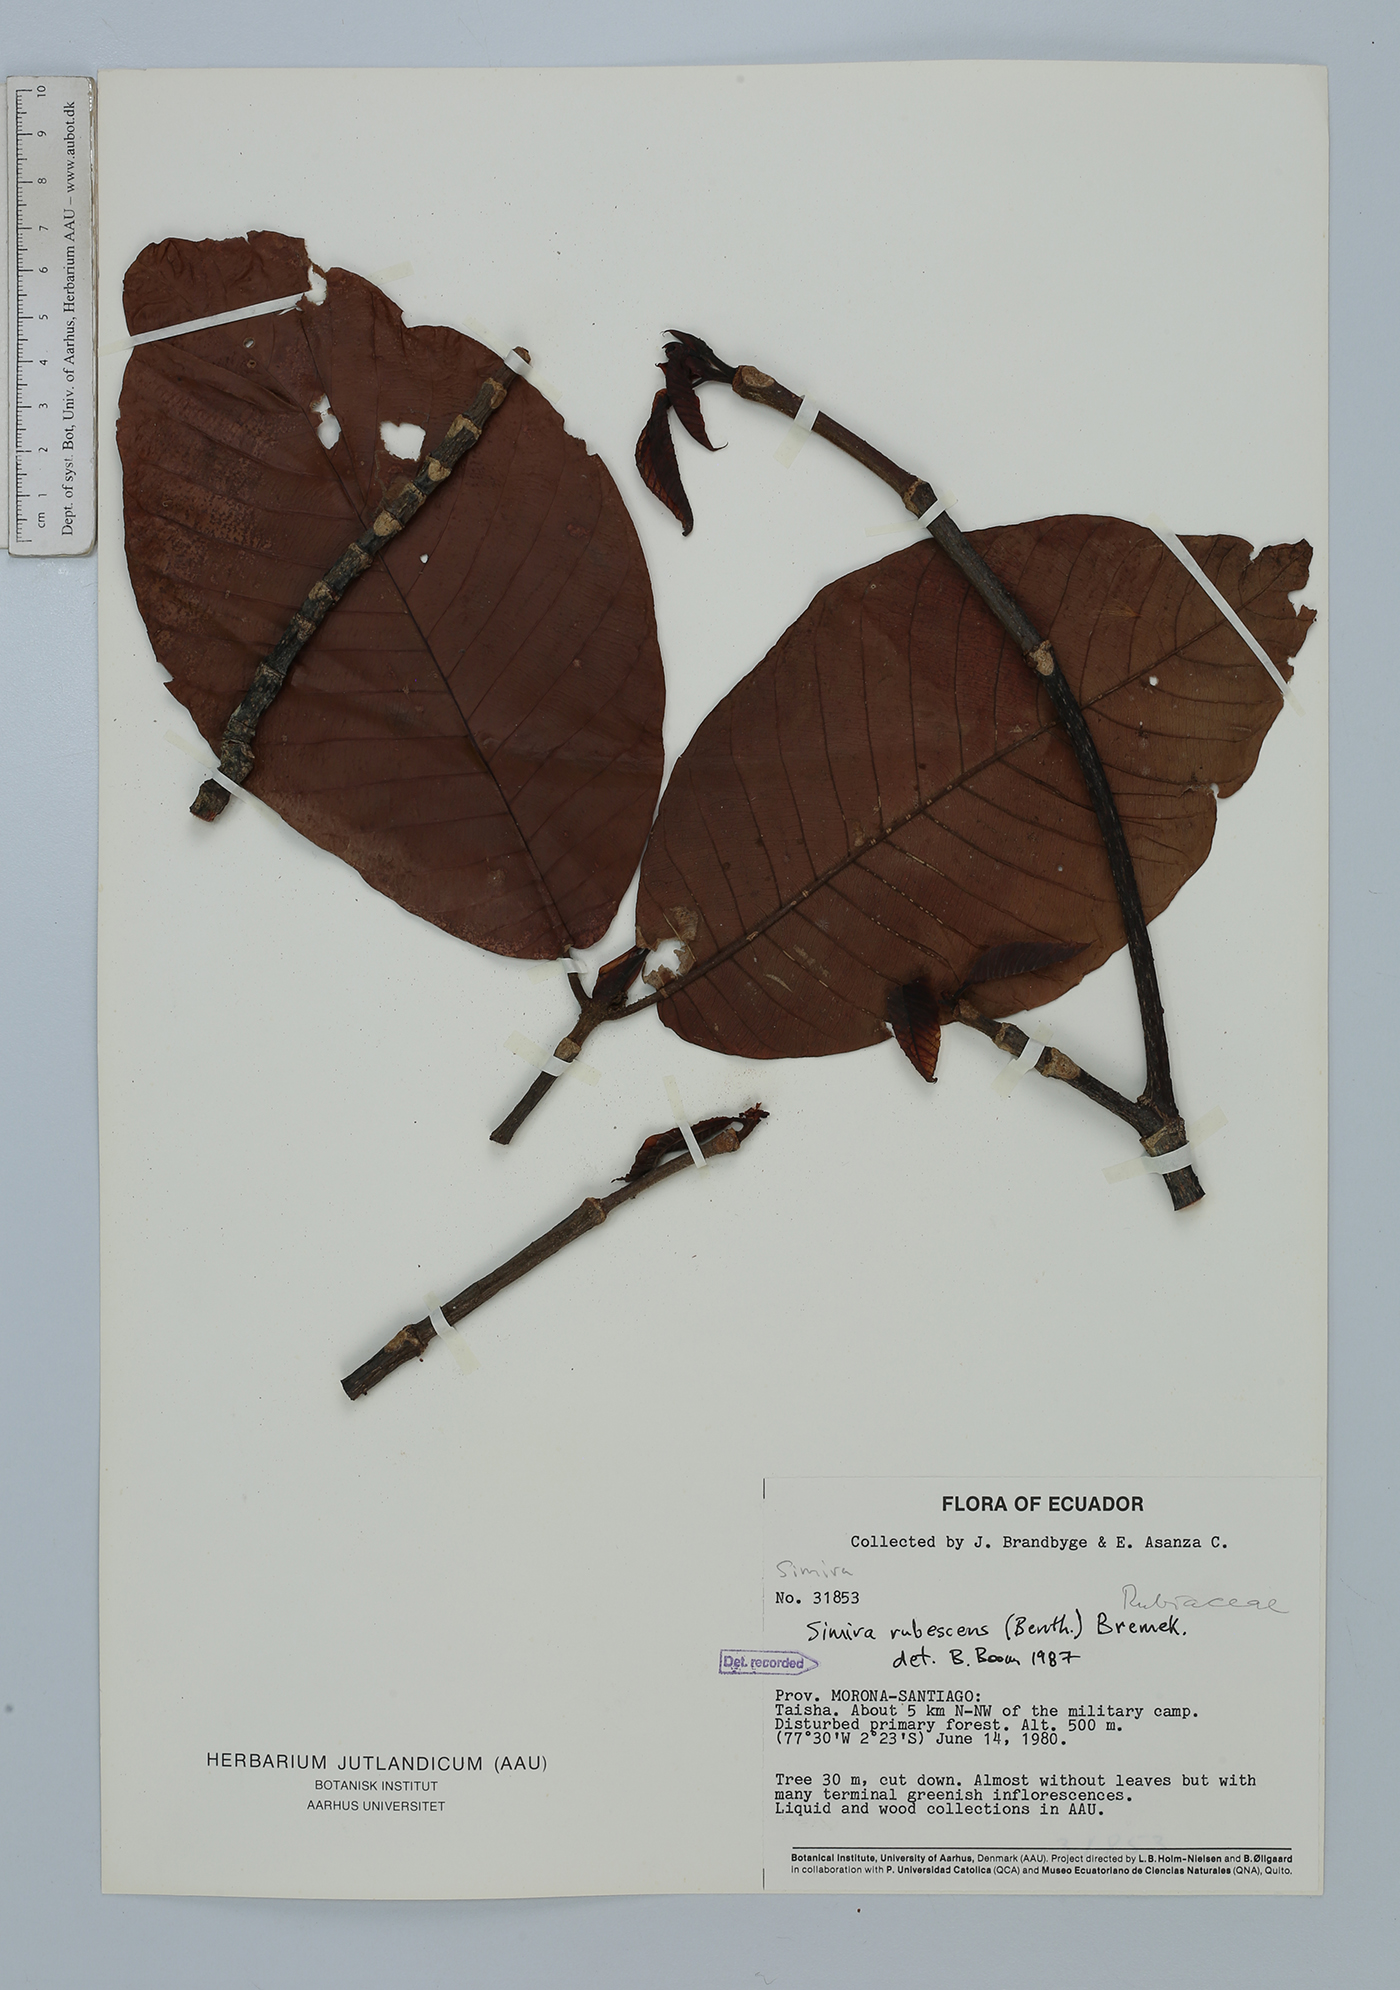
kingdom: Plantae
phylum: Tracheophyta
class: Magnoliopsida
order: Gentianales
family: Rubiaceae
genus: Simira
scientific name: Simira rubescens
